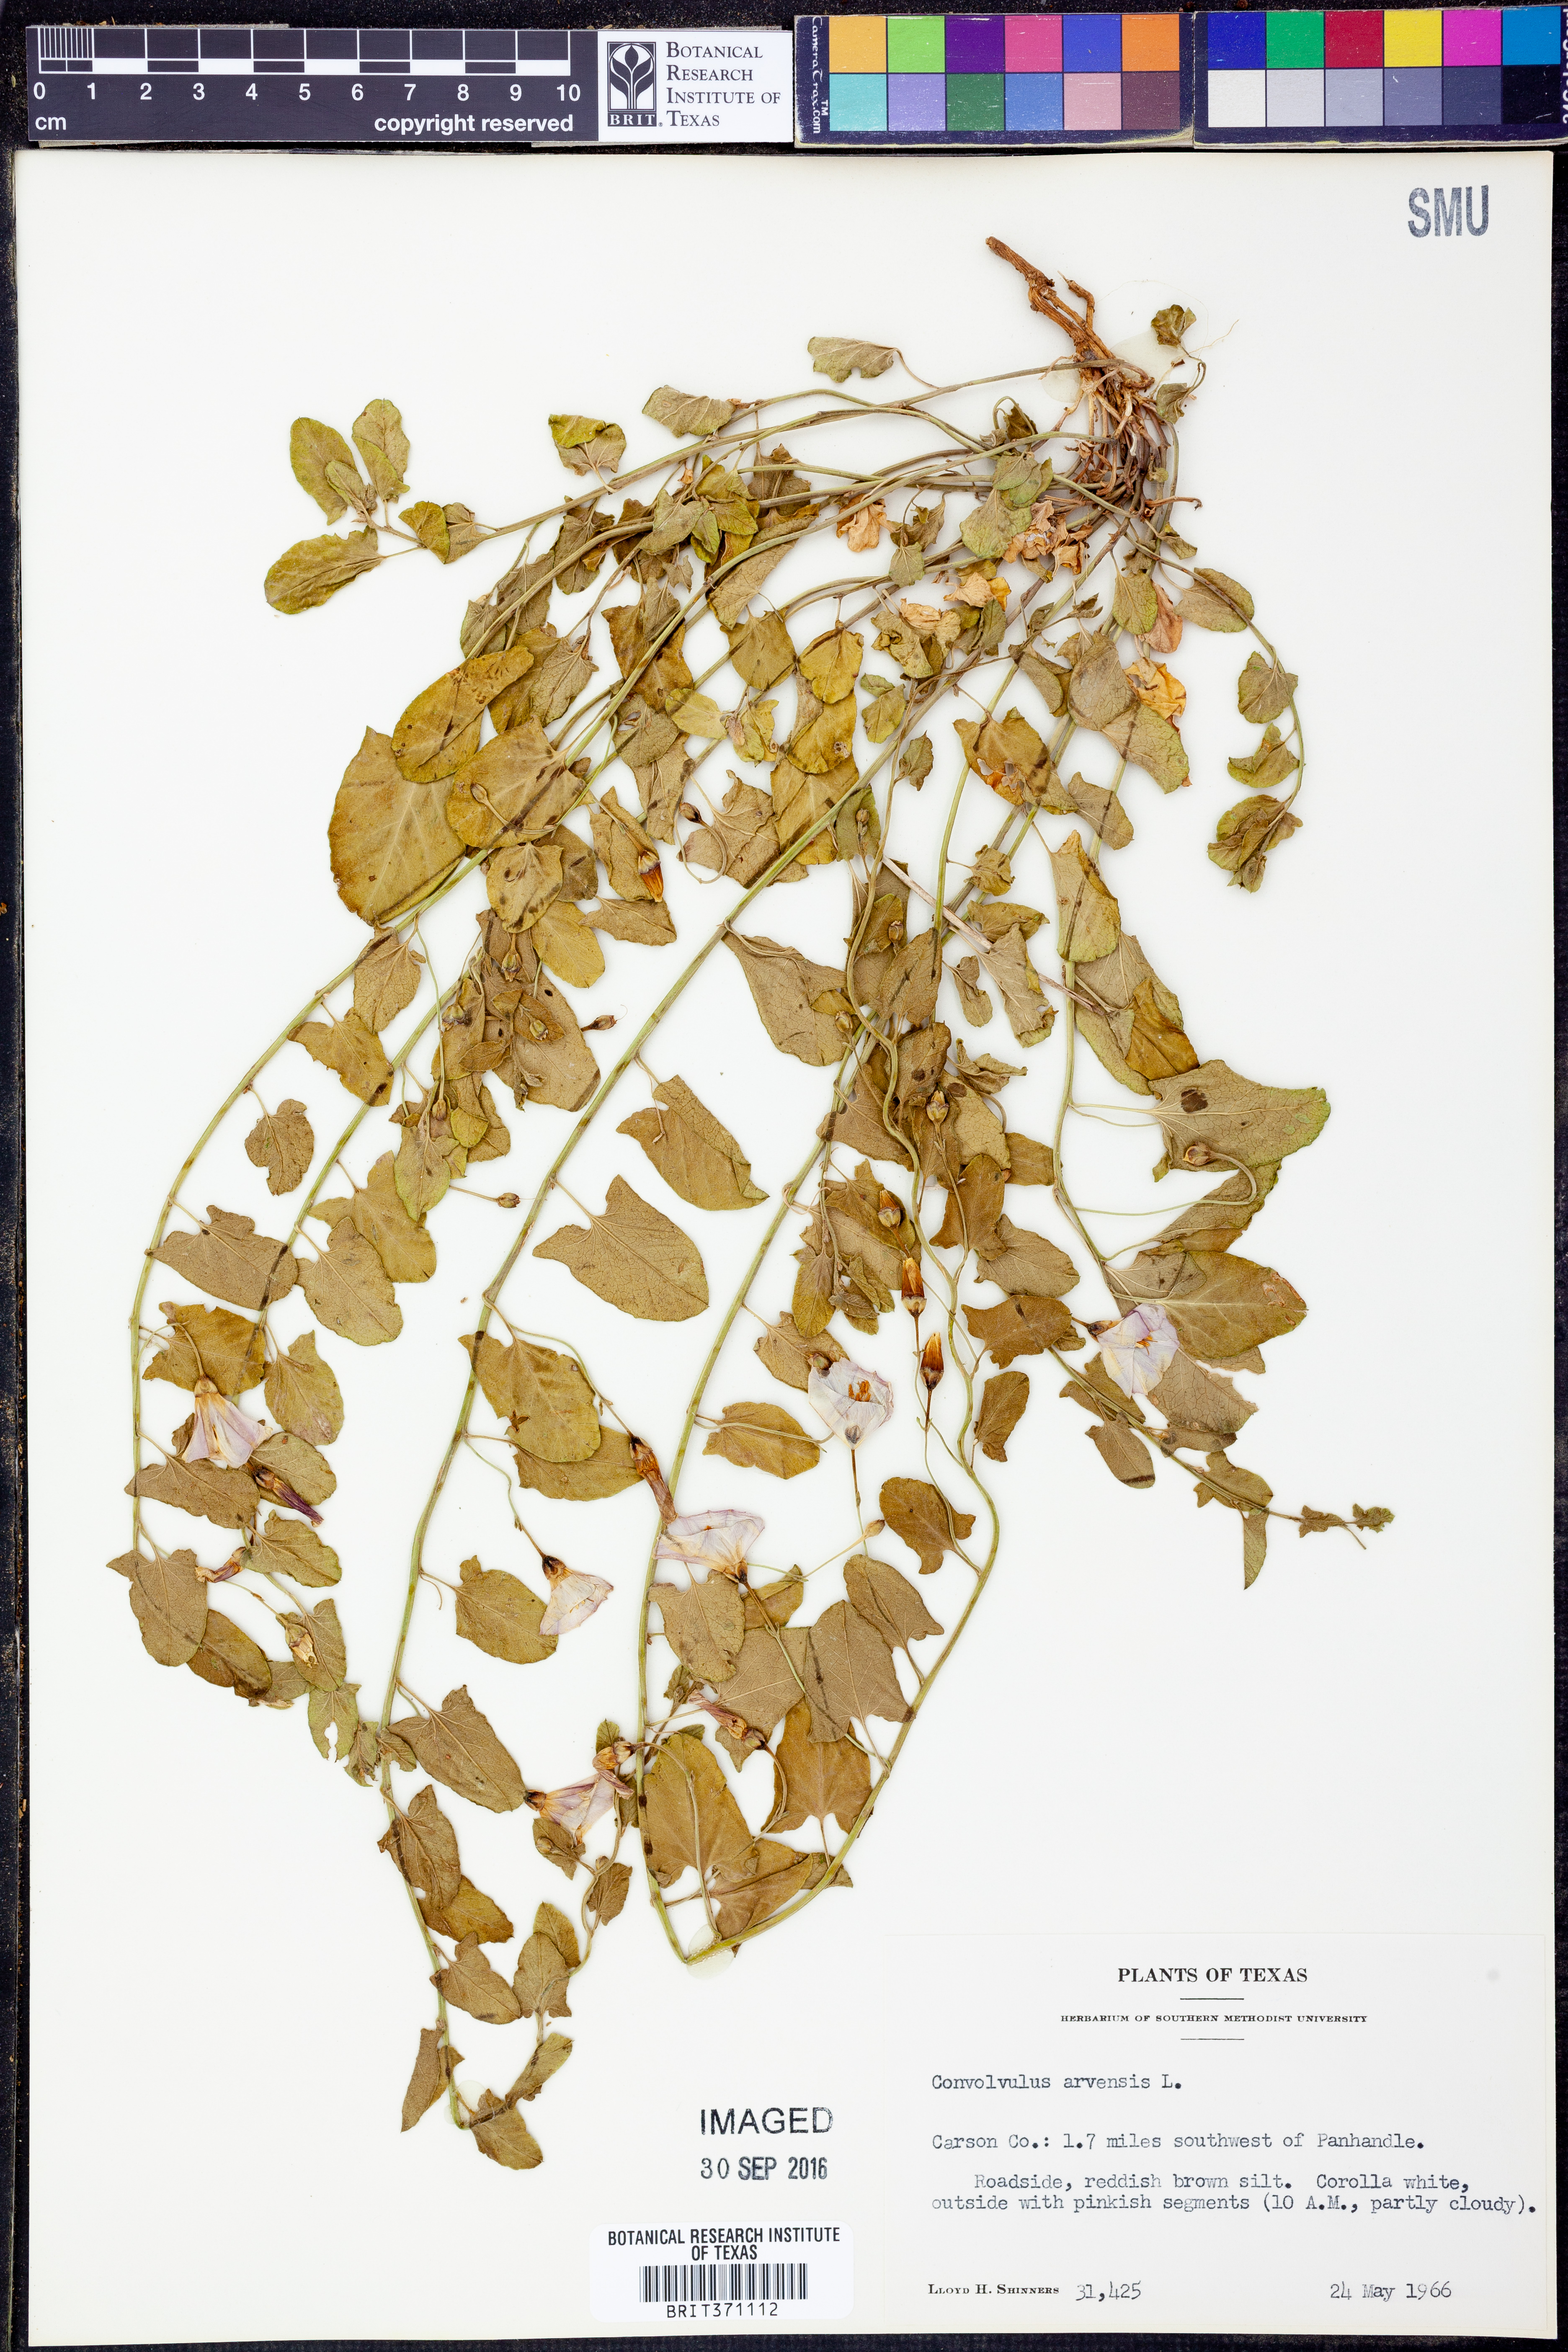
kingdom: Plantae
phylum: Tracheophyta
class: Magnoliopsida
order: Solanales
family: Convolvulaceae
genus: Convolvulus
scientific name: Convolvulus arvensis
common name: Field bindweed
